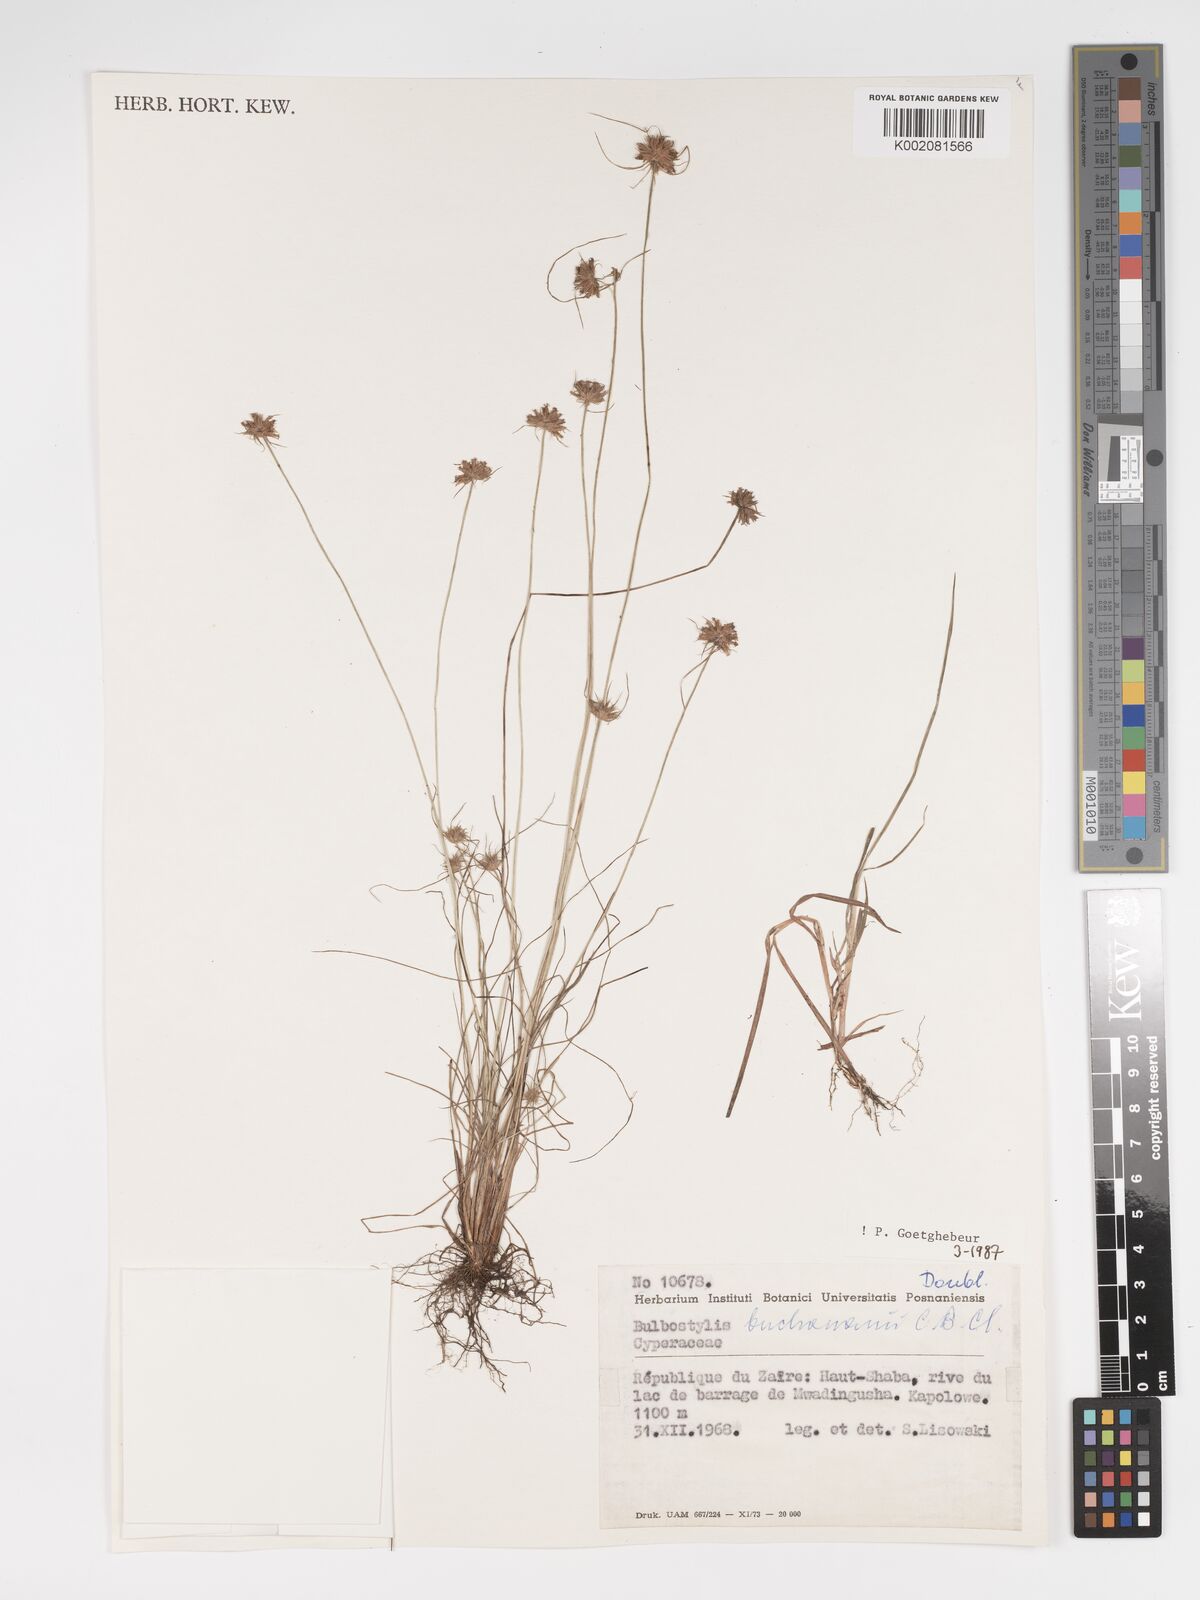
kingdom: Plantae
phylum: Tracheophyta
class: Liliopsida
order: Poales
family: Cyperaceae
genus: Bulbostylis
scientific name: Bulbostylis buchananii
